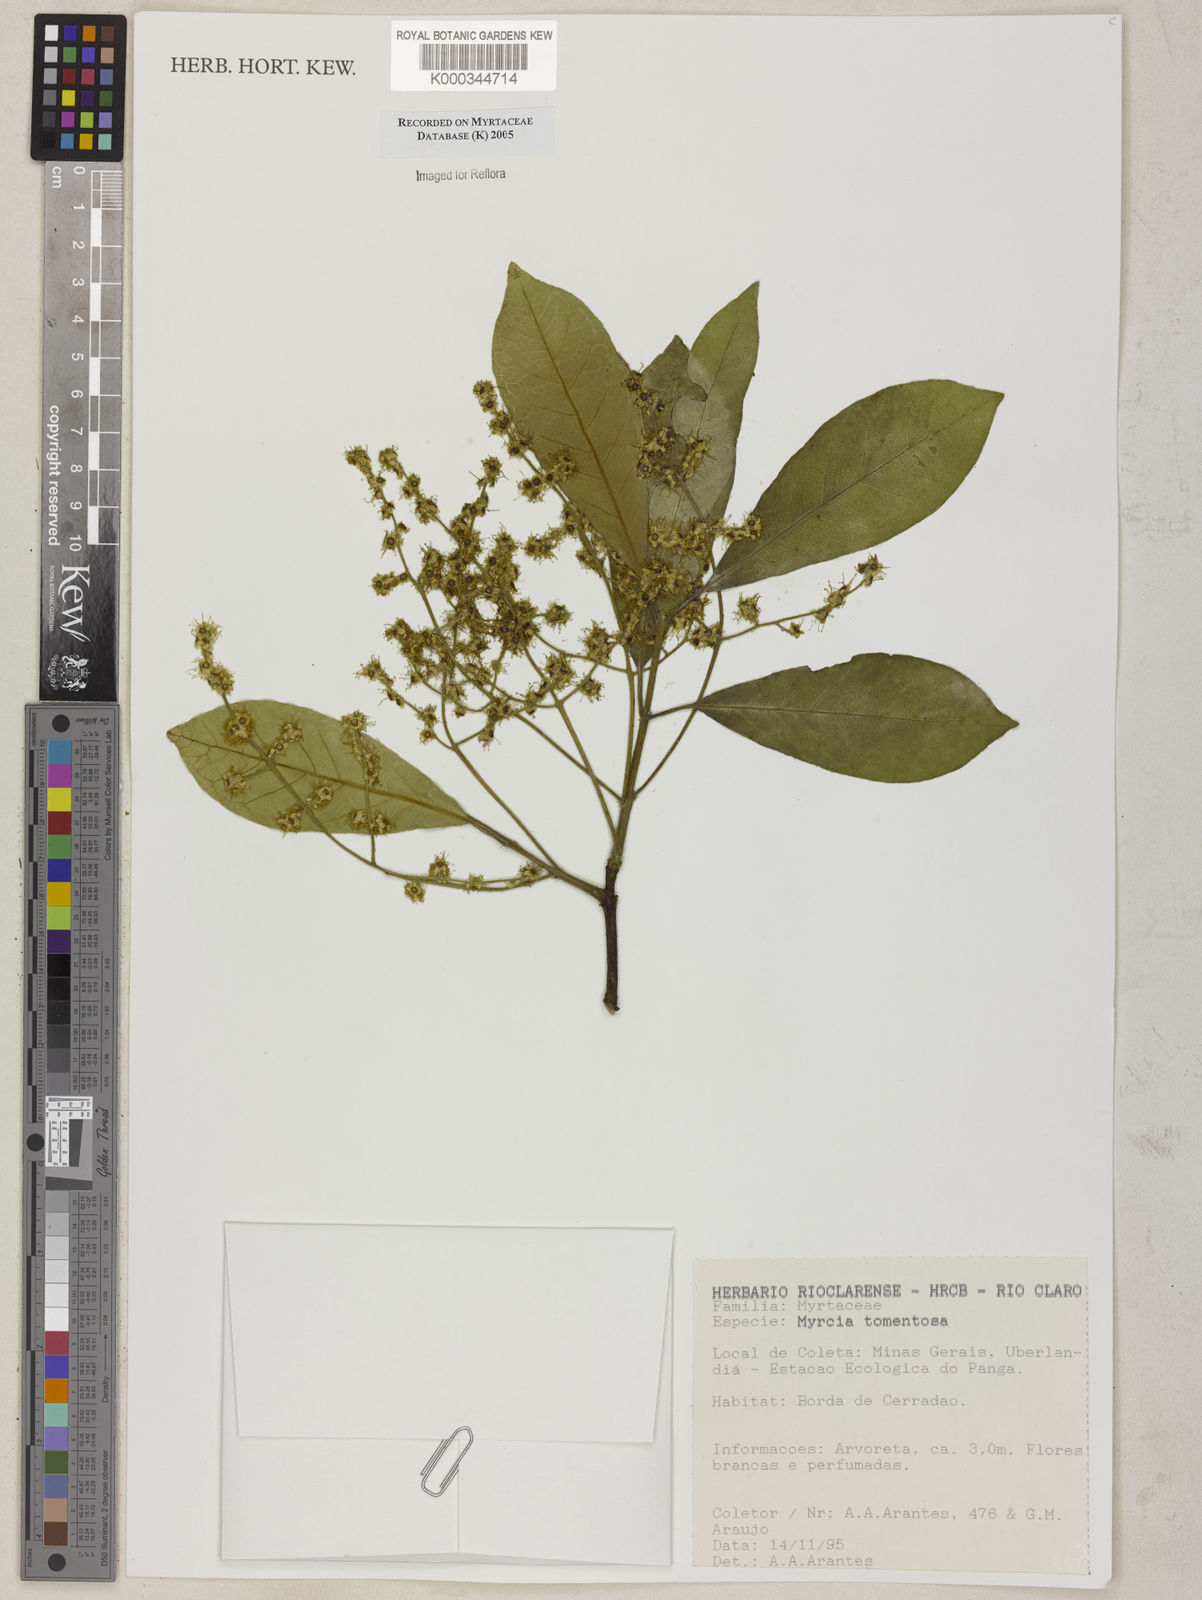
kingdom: Plantae
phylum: Tracheophyta
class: Magnoliopsida
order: Myrtales
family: Myrtaceae
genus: Myrcia
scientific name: Myrcia tomentosa
